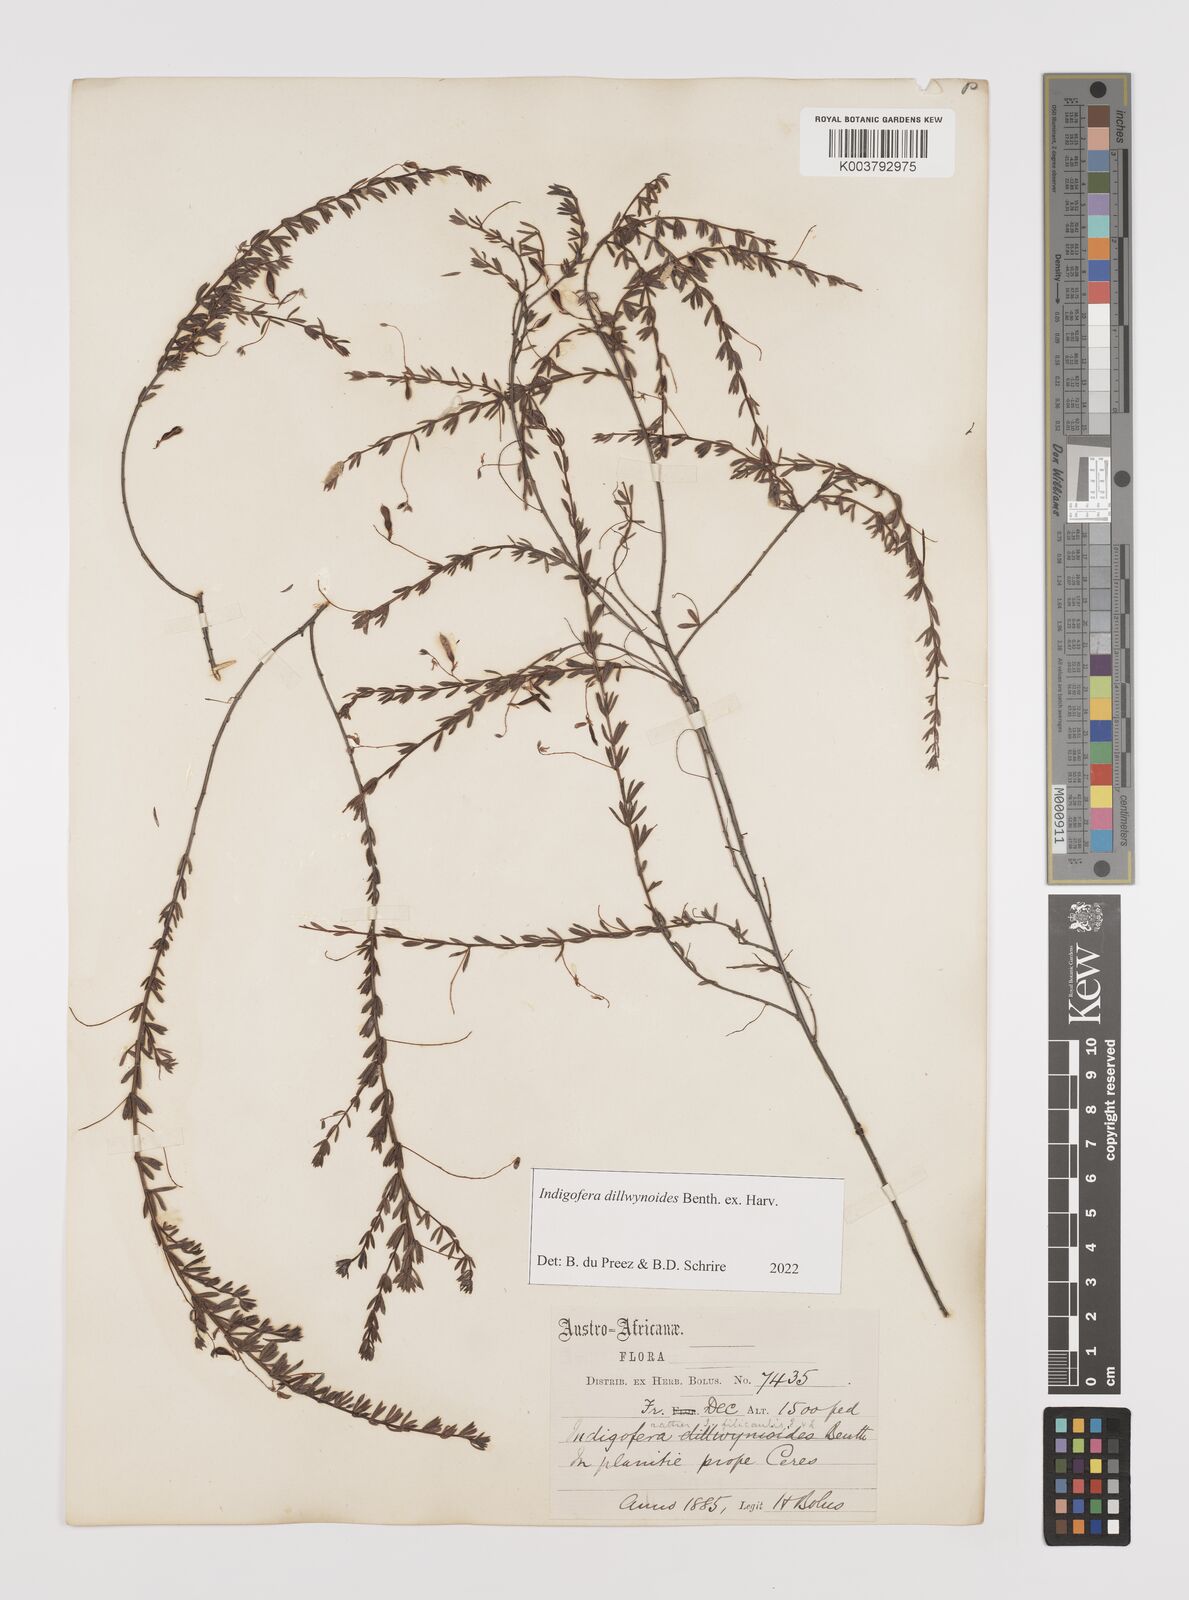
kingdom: Plantae
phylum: Tracheophyta
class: Magnoliopsida
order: Fabales
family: Fabaceae
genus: Indigofera
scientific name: Indigofera dillwynioides
